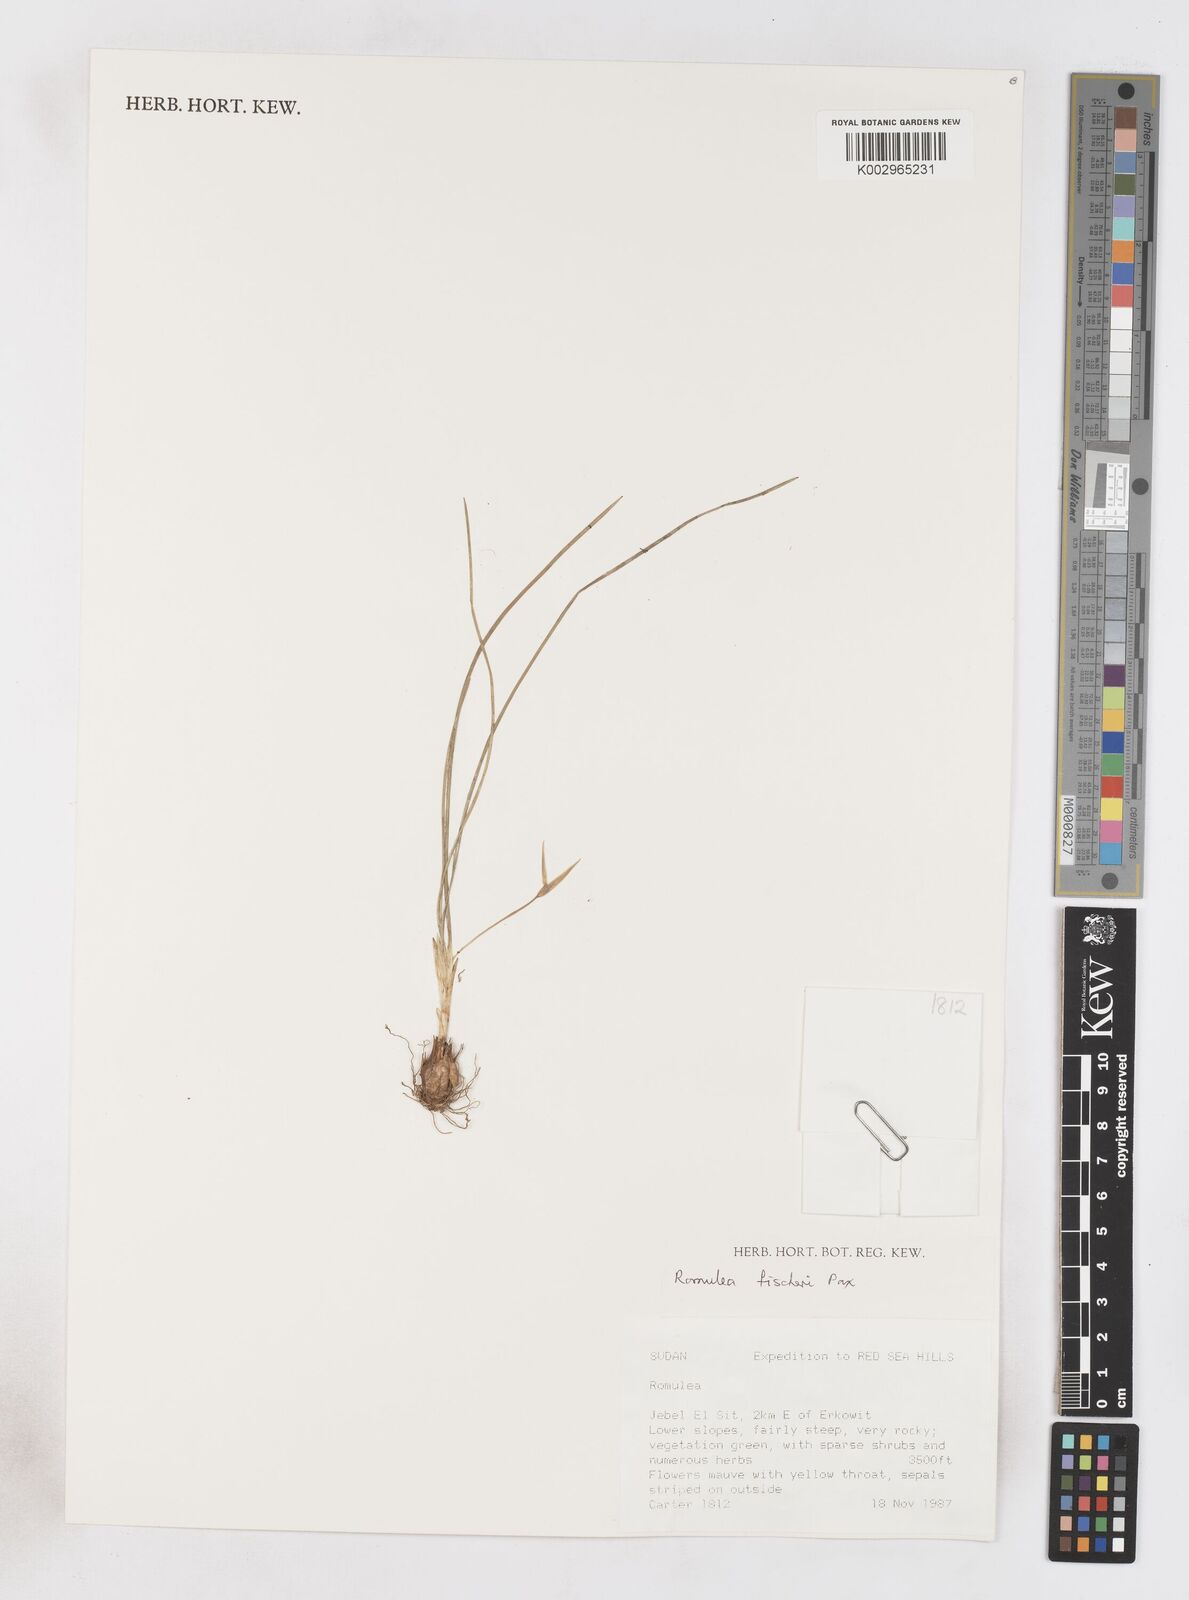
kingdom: Plantae
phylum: Tracheophyta
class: Liliopsida
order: Asparagales
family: Iridaceae
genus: Romulea
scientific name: Romulea fischeri
